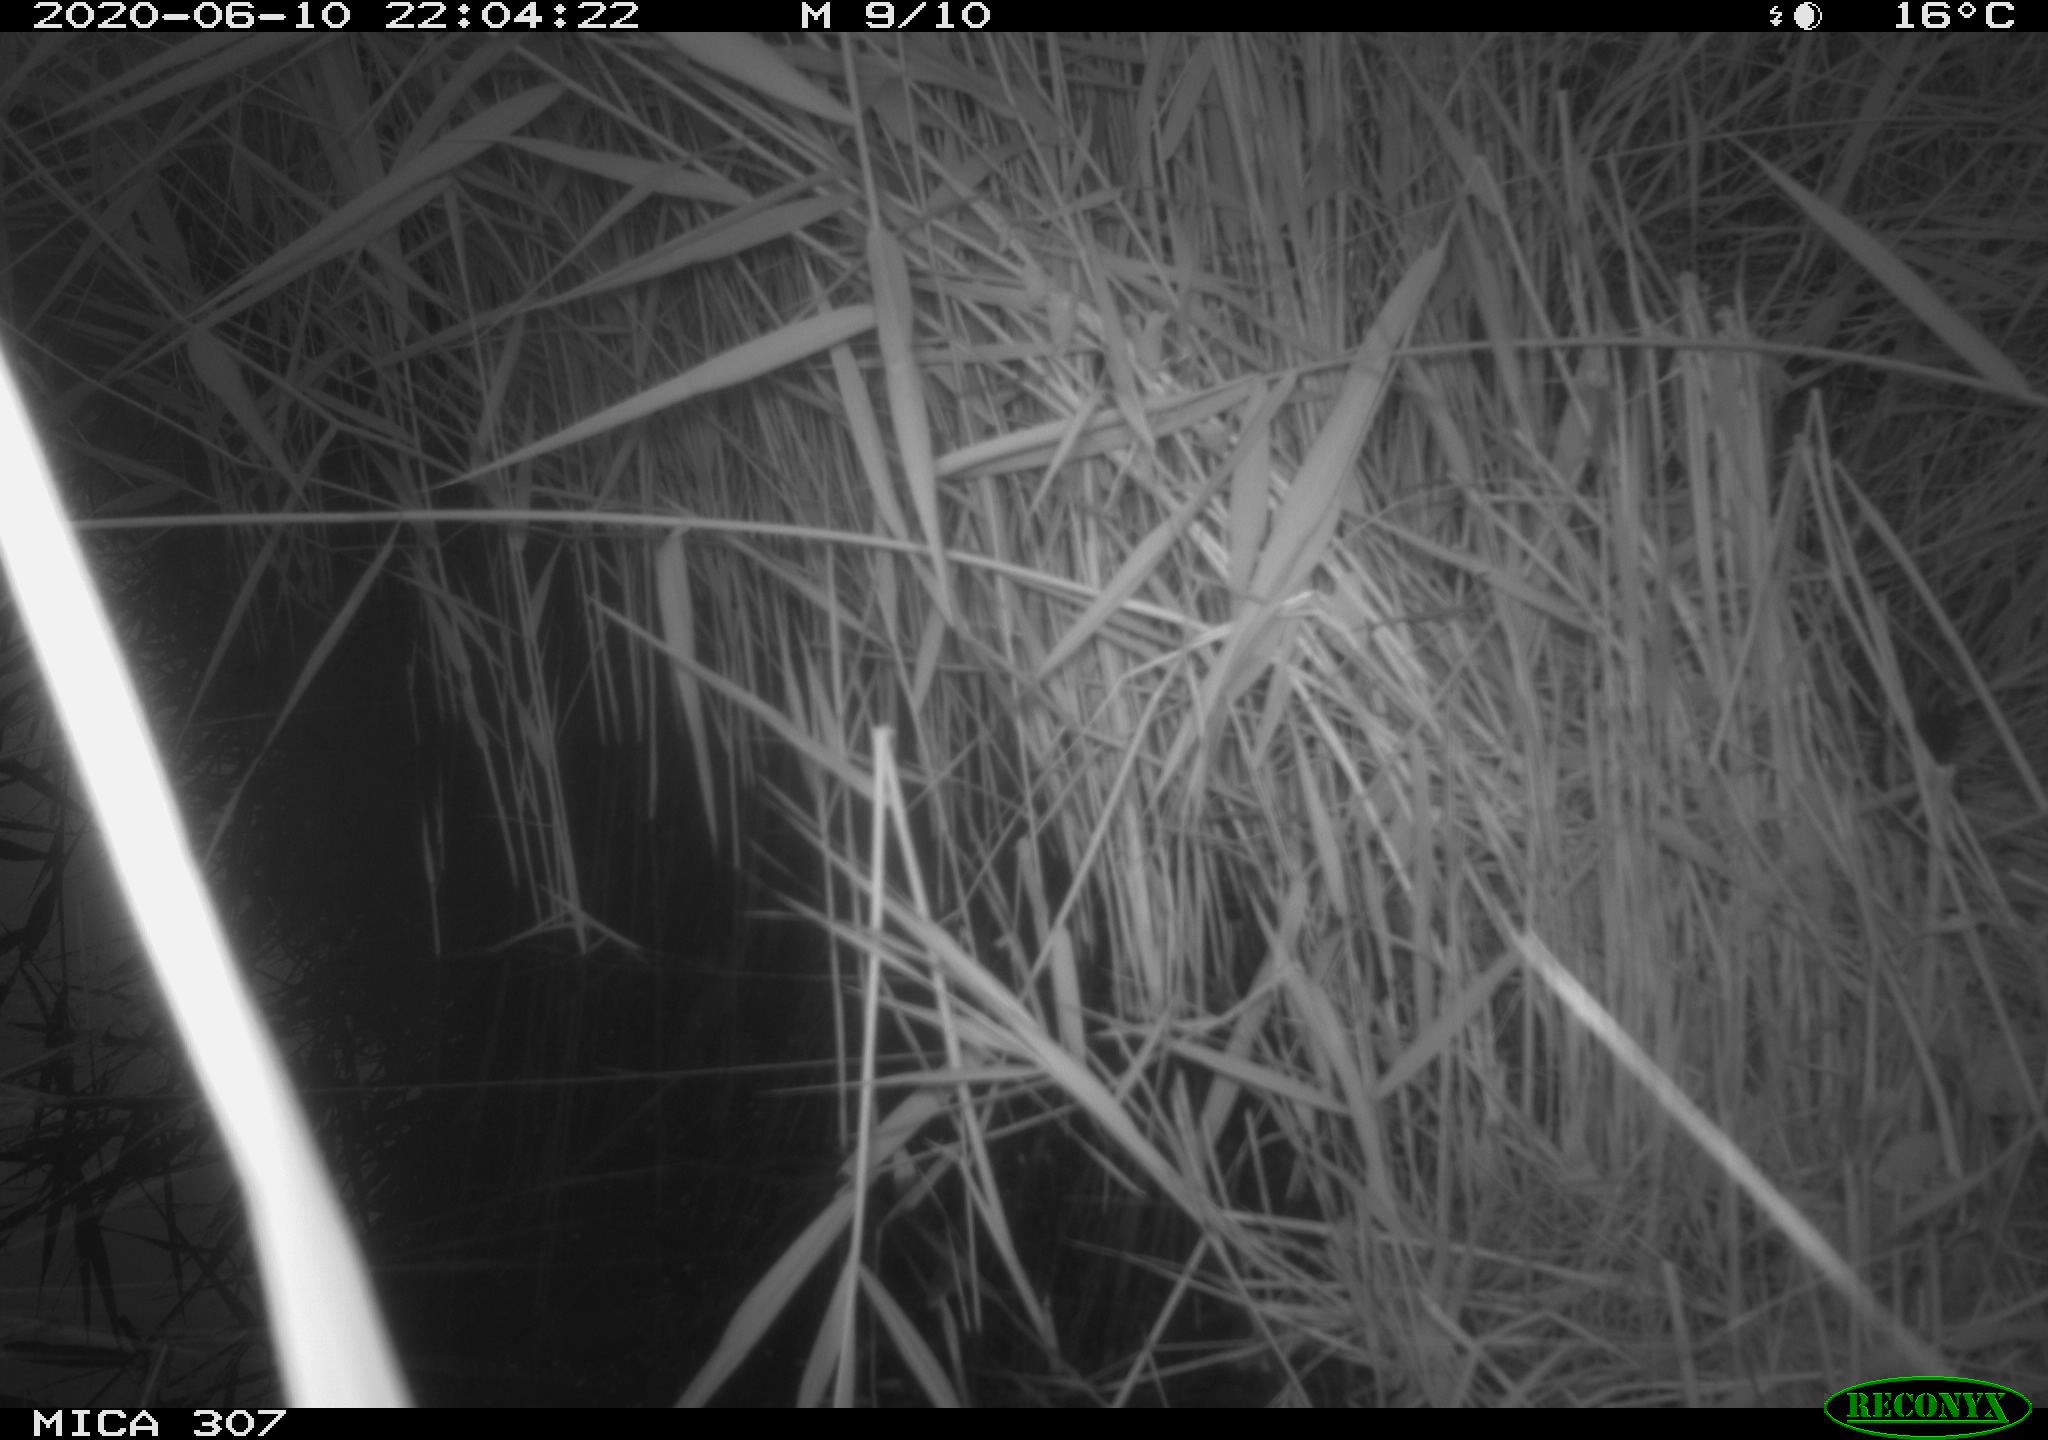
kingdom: Animalia
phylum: Chordata
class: Mammalia
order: Rodentia
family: Muridae
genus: Rattus
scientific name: Rattus norvegicus
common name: Brown rat
